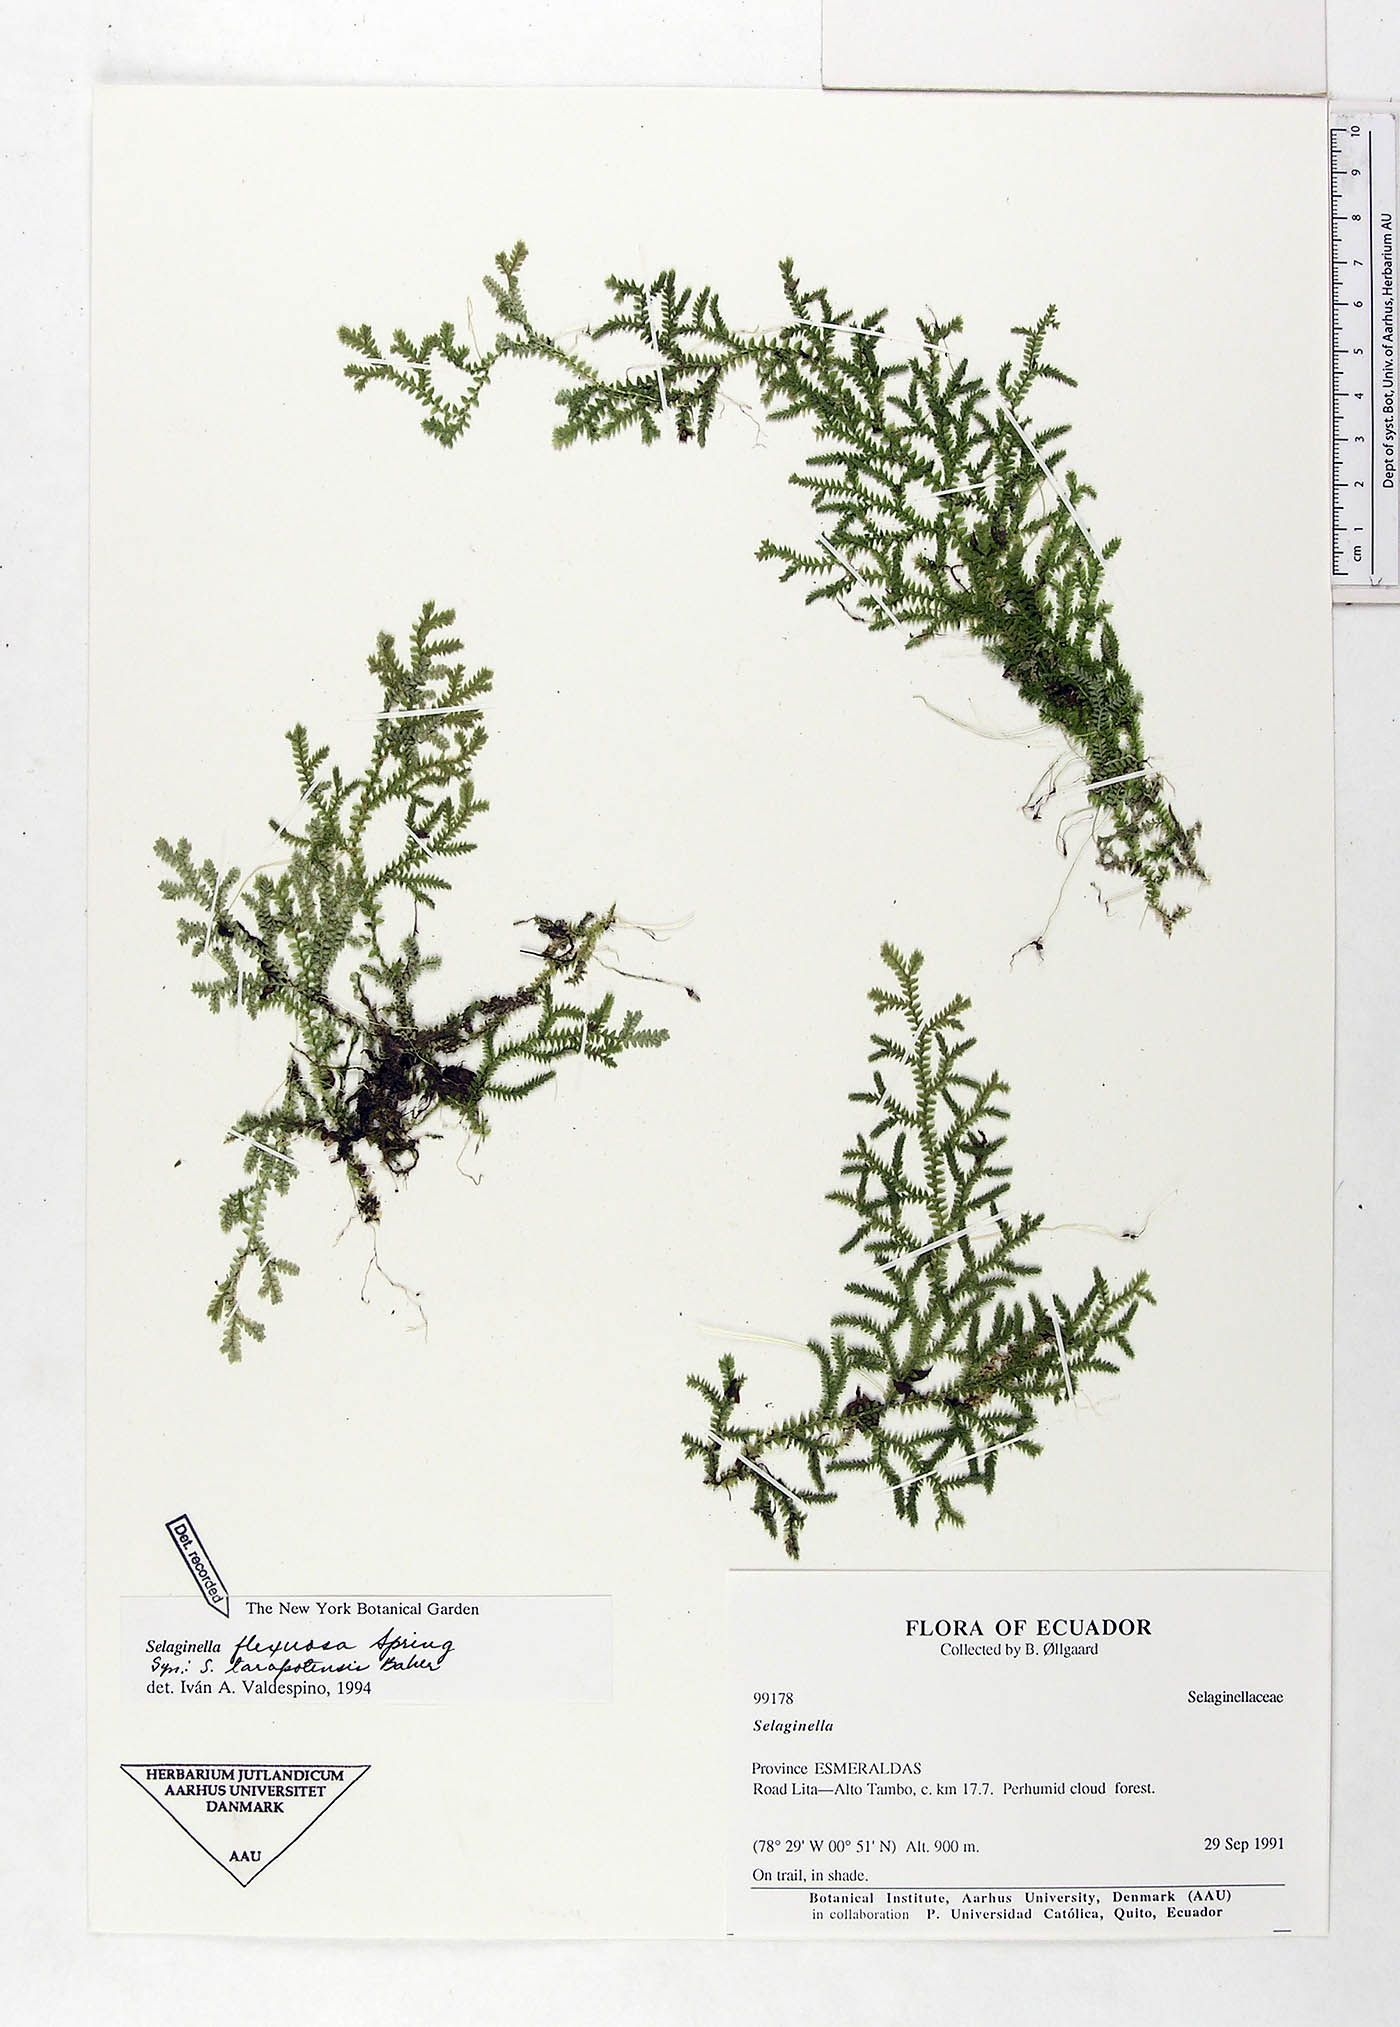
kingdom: Plantae
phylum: Tracheophyta
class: Lycopodiopsida
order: Selaginellales
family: Selaginellaceae
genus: Selaginella
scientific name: Selaginella flexuosa
